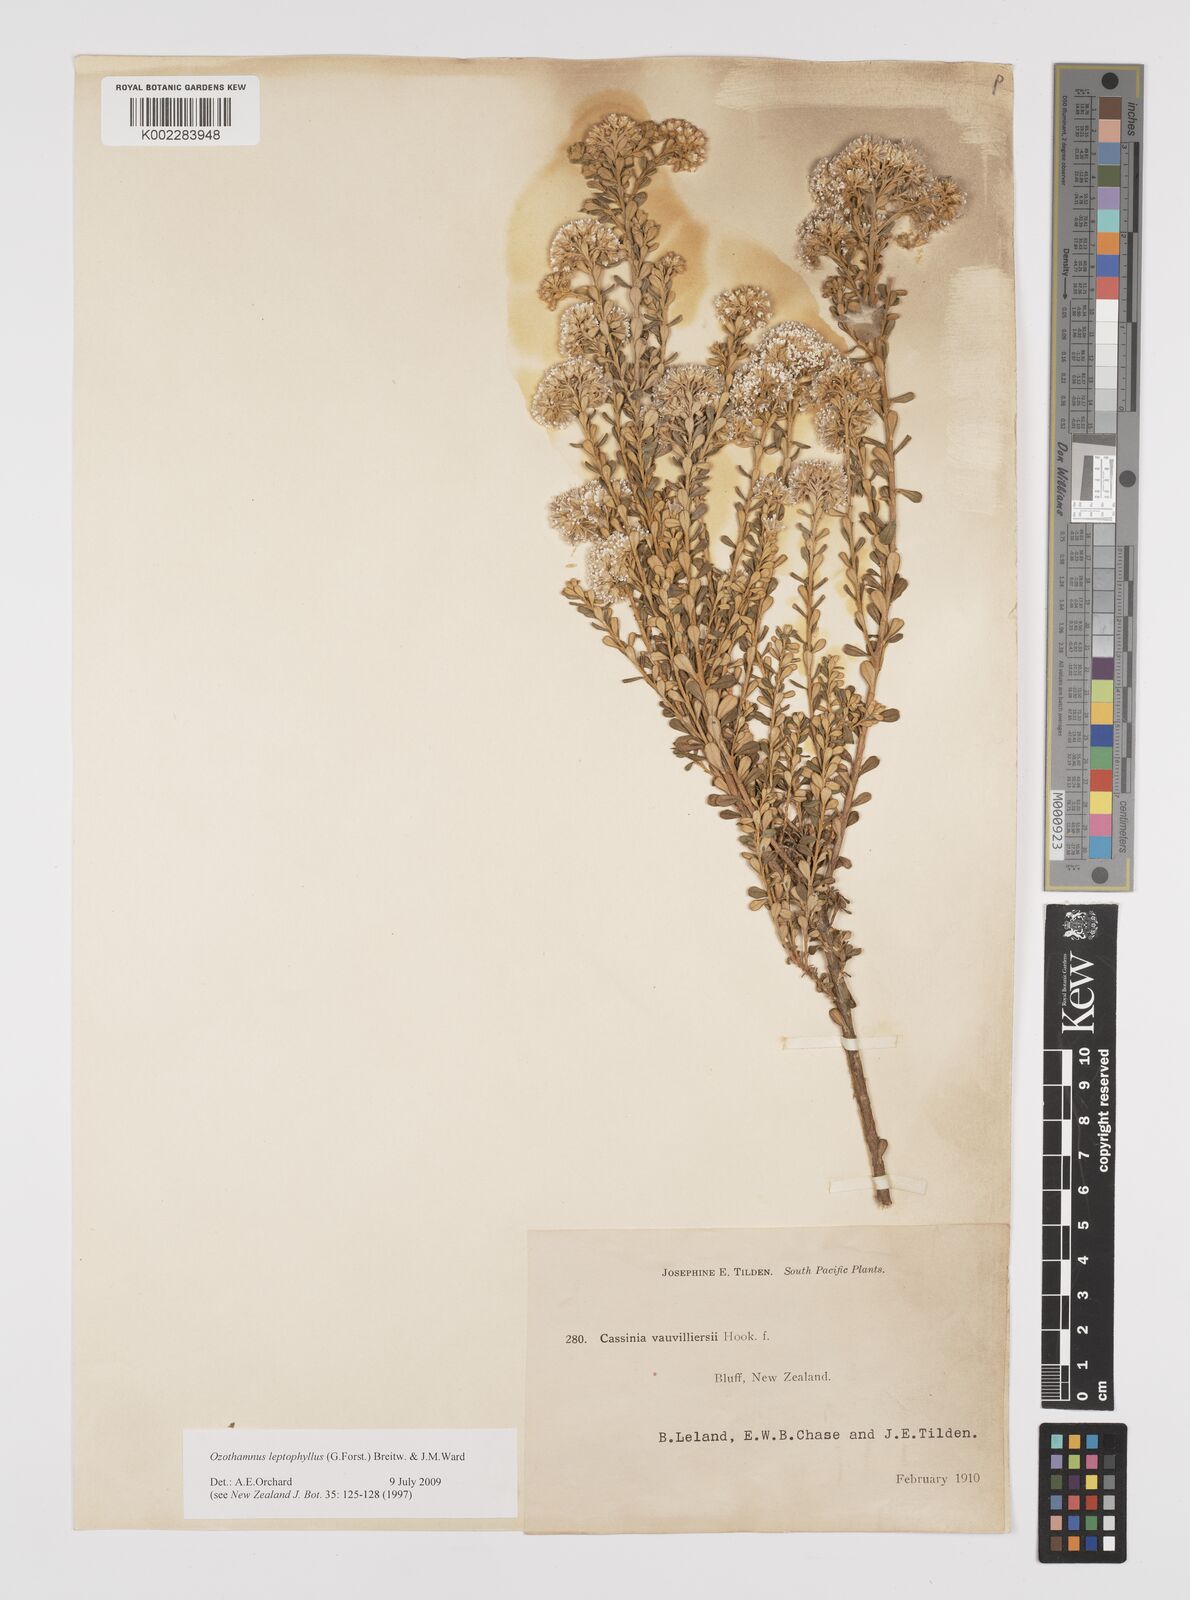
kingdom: Plantae
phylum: Tracheophyta
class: Magnoliopsida
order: Asterales
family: Asteraceae
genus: Ozothamnus
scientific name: Ozothamnus leptophyllus
